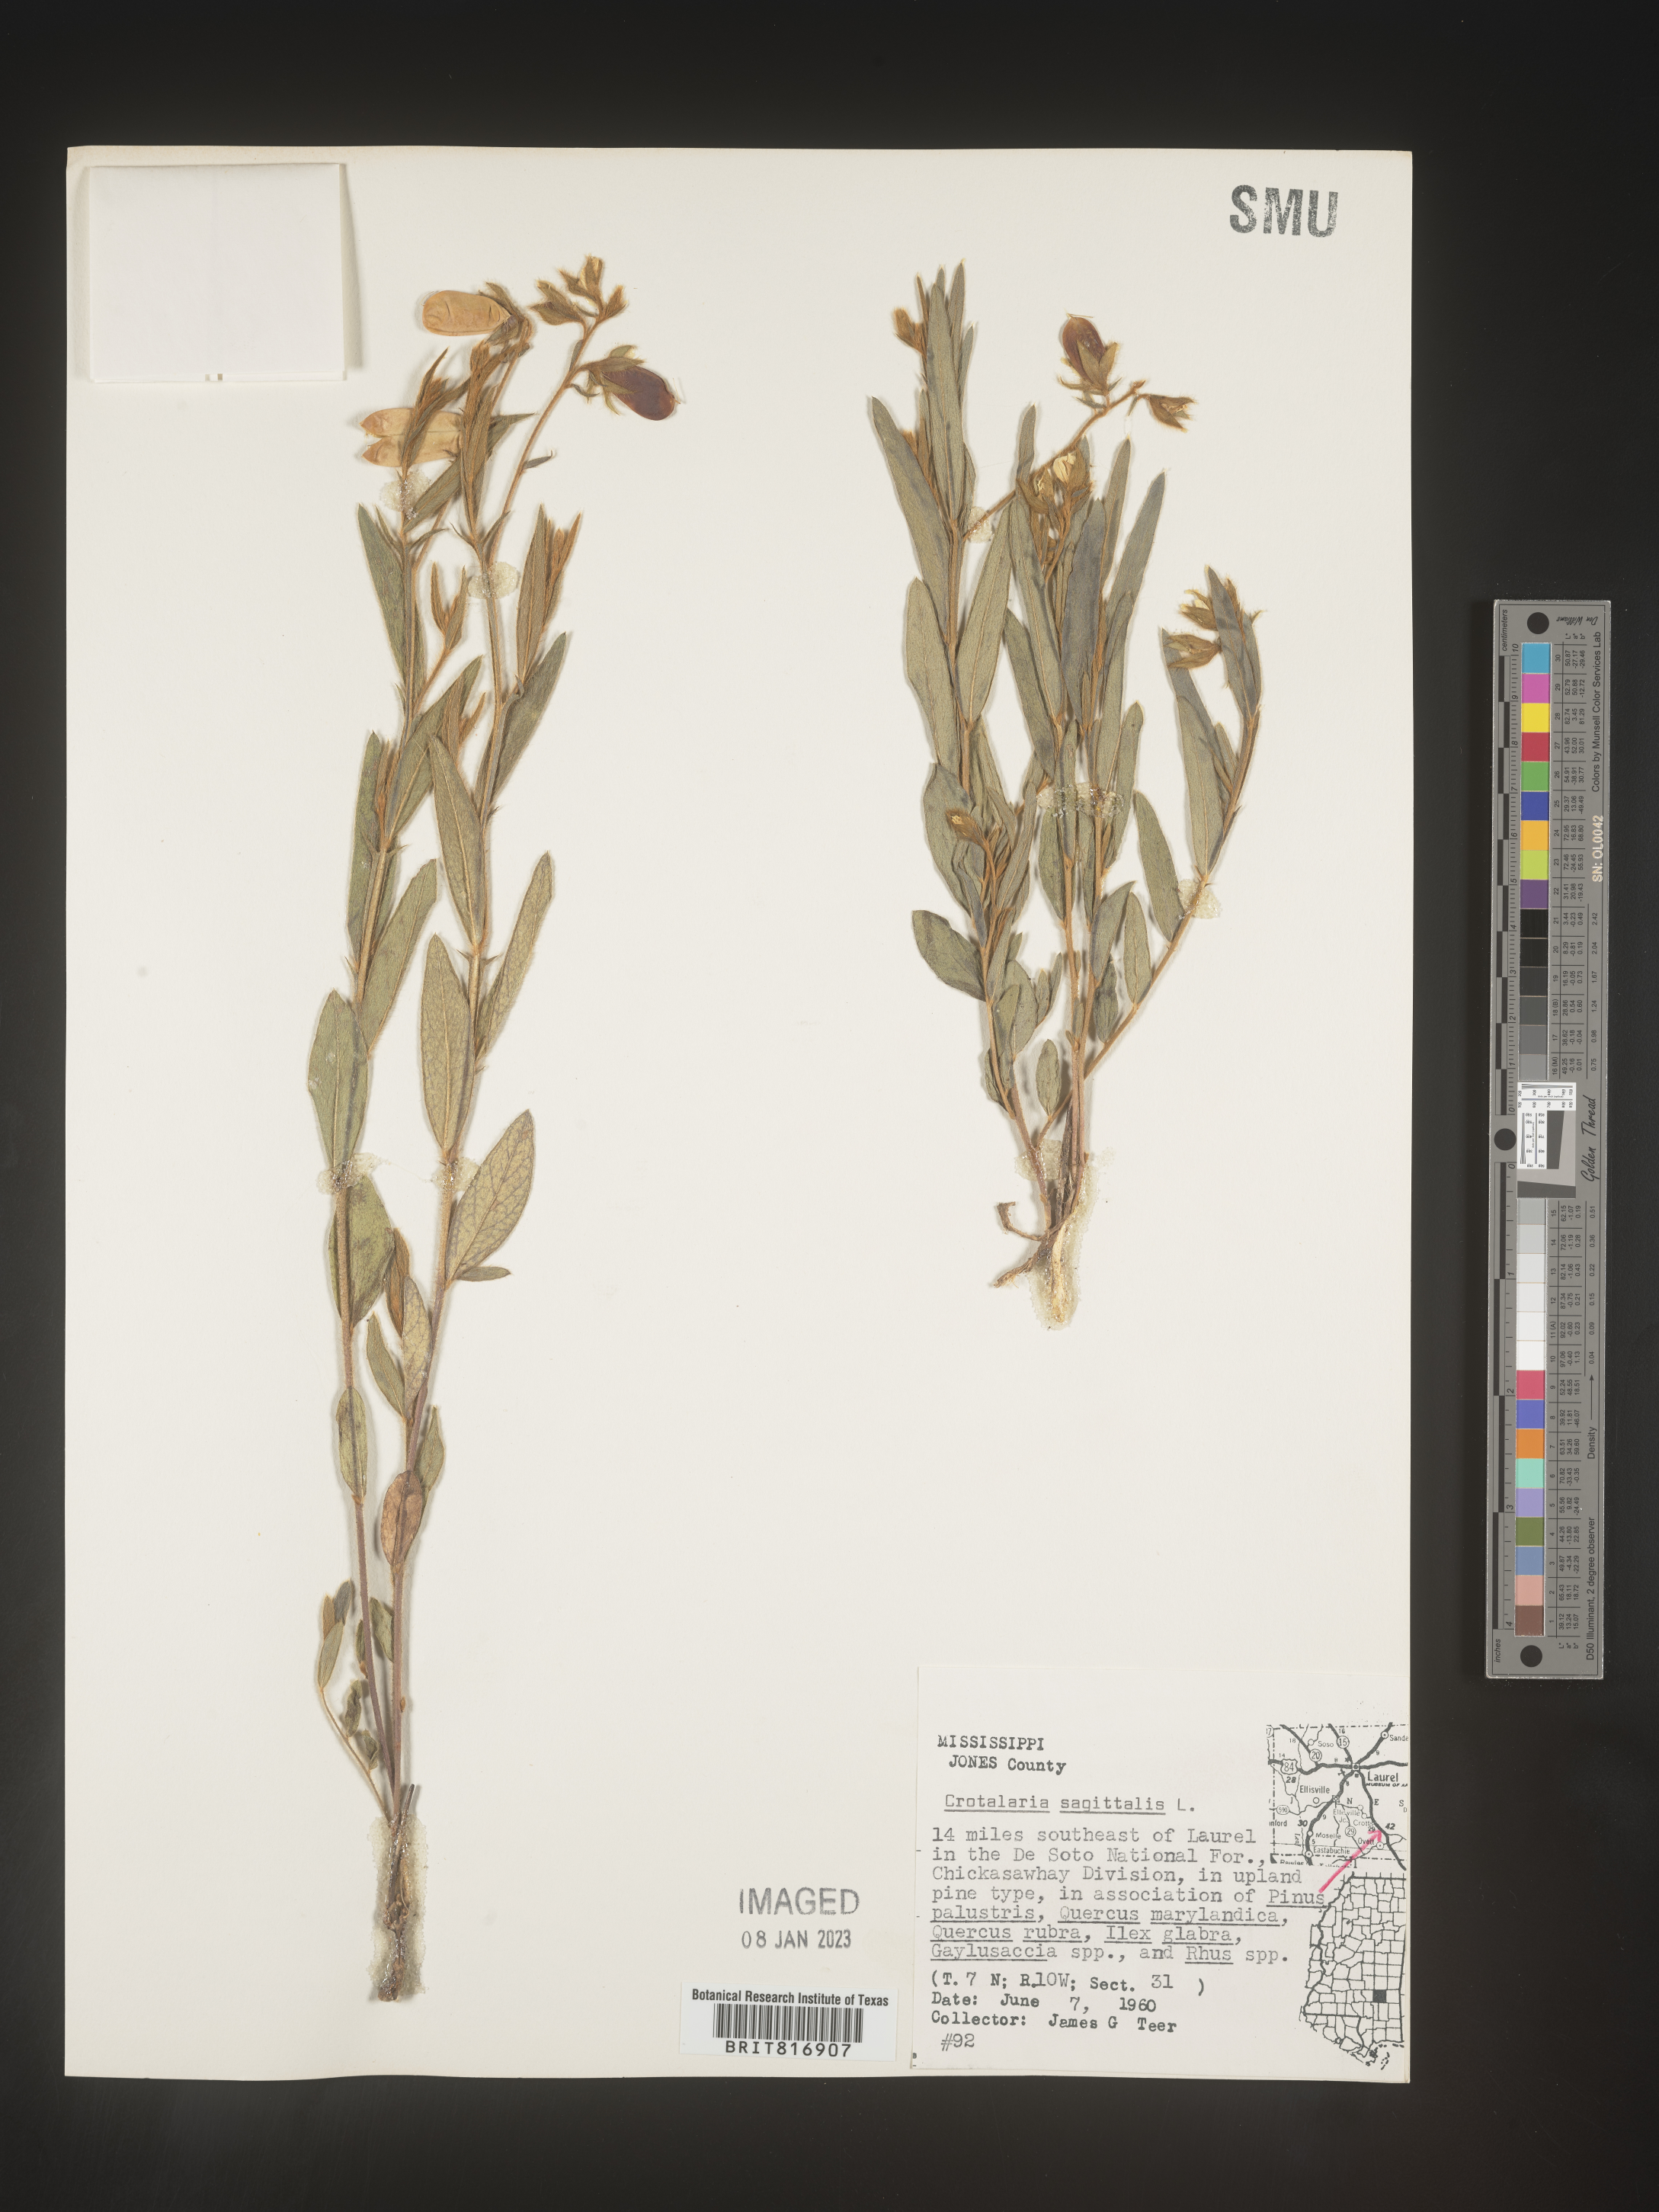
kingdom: Plantae
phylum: Tracheophyta
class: Magnoliopsida
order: Fabales
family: Fabaceae
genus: Crotalaria
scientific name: Crotalaria sagittalis
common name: Arrowhead rattlebox
